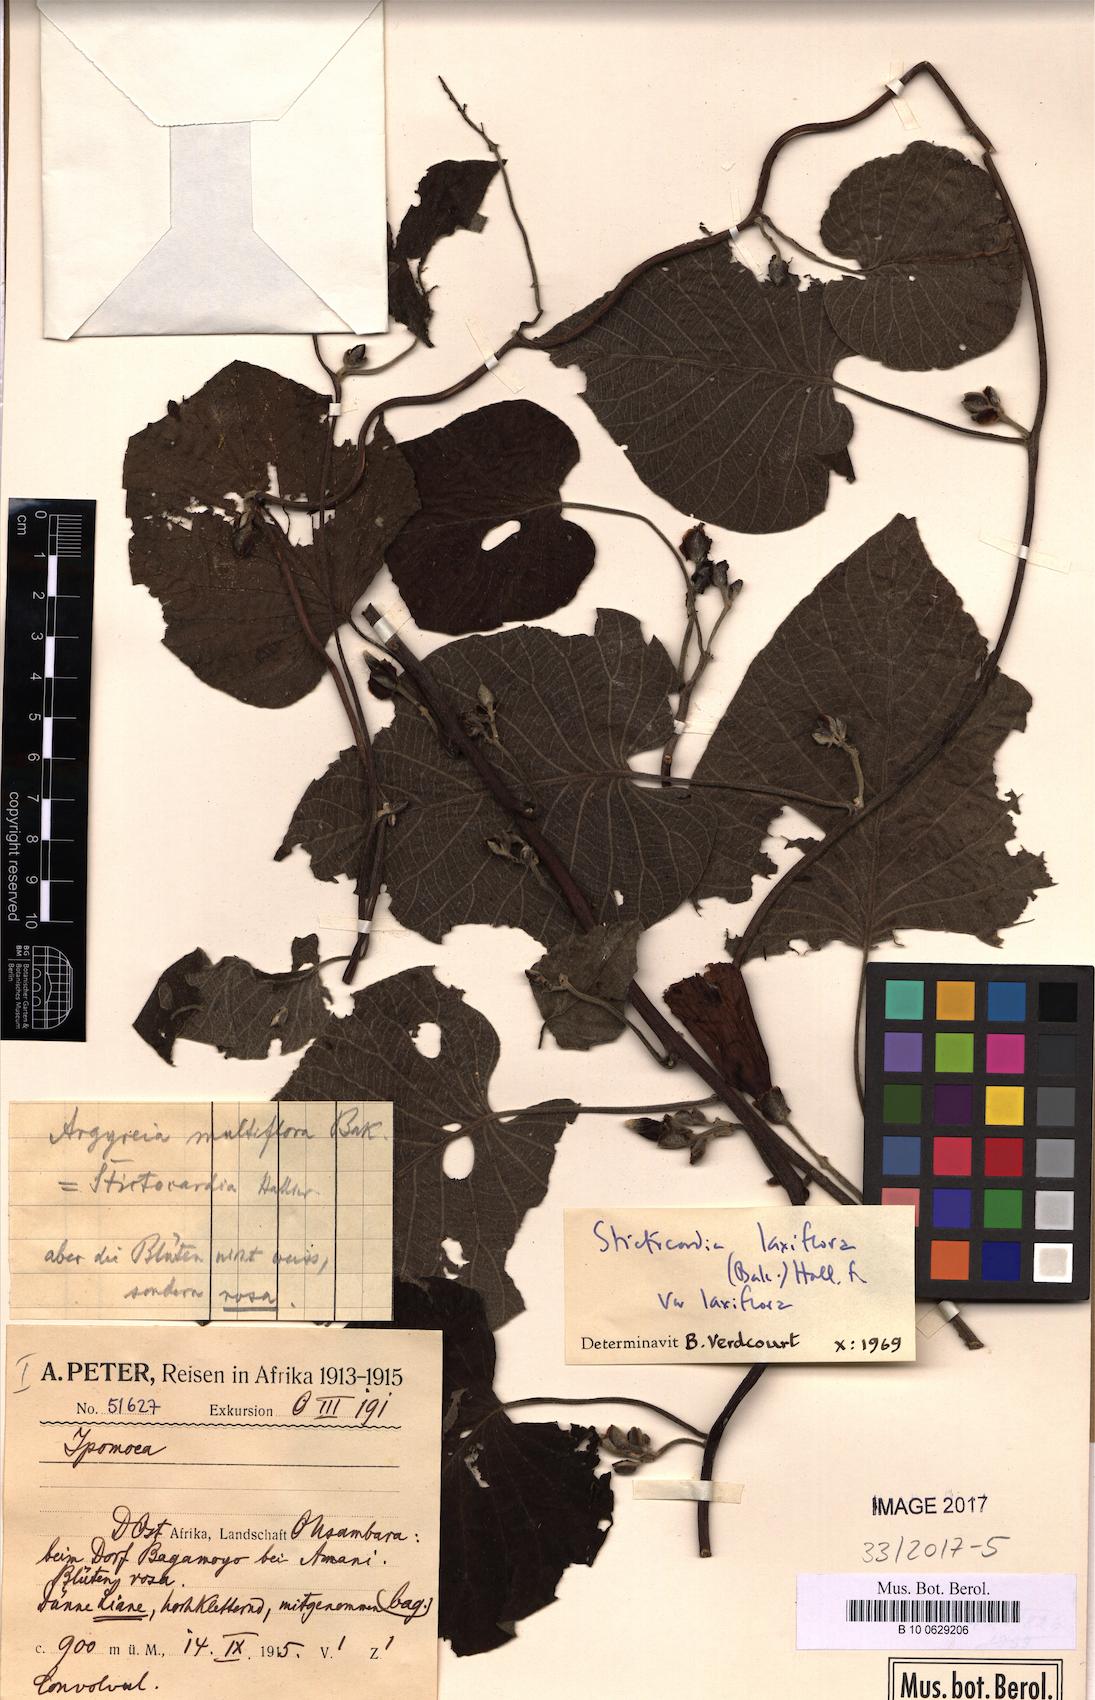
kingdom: Plantae
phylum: Tracheophyta
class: Magnoliopsida
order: Solanales
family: Convolvulaceae
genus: Stictocardia
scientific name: Stictocardia laxiflora
